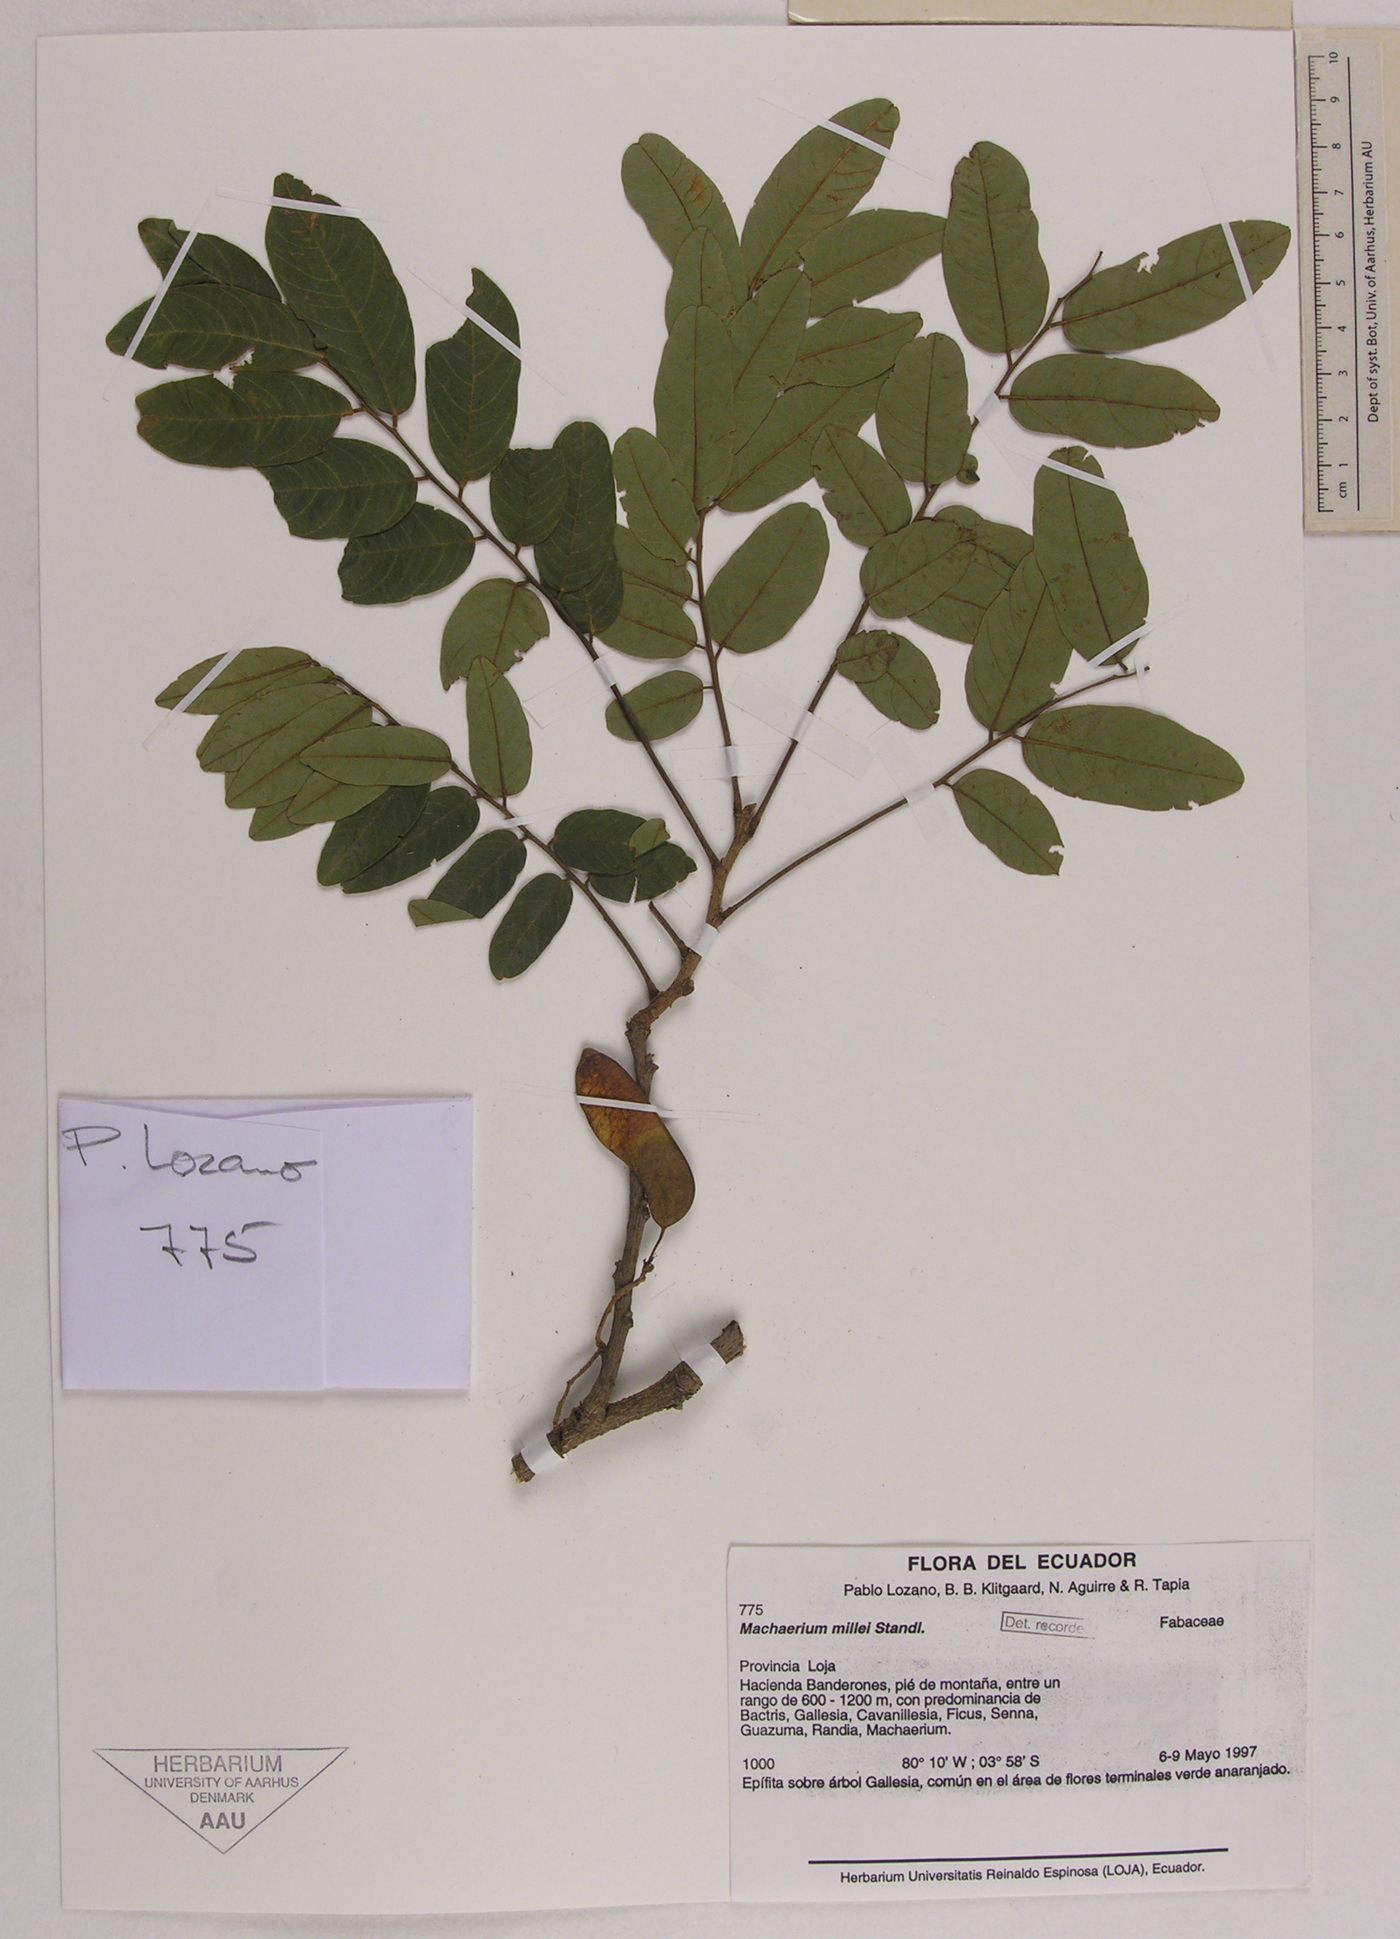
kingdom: Plantae
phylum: Tracheophyta
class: Magnoliopsida
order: Fabales
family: Fabaceae
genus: Machaerium
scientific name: Machaerium millei
